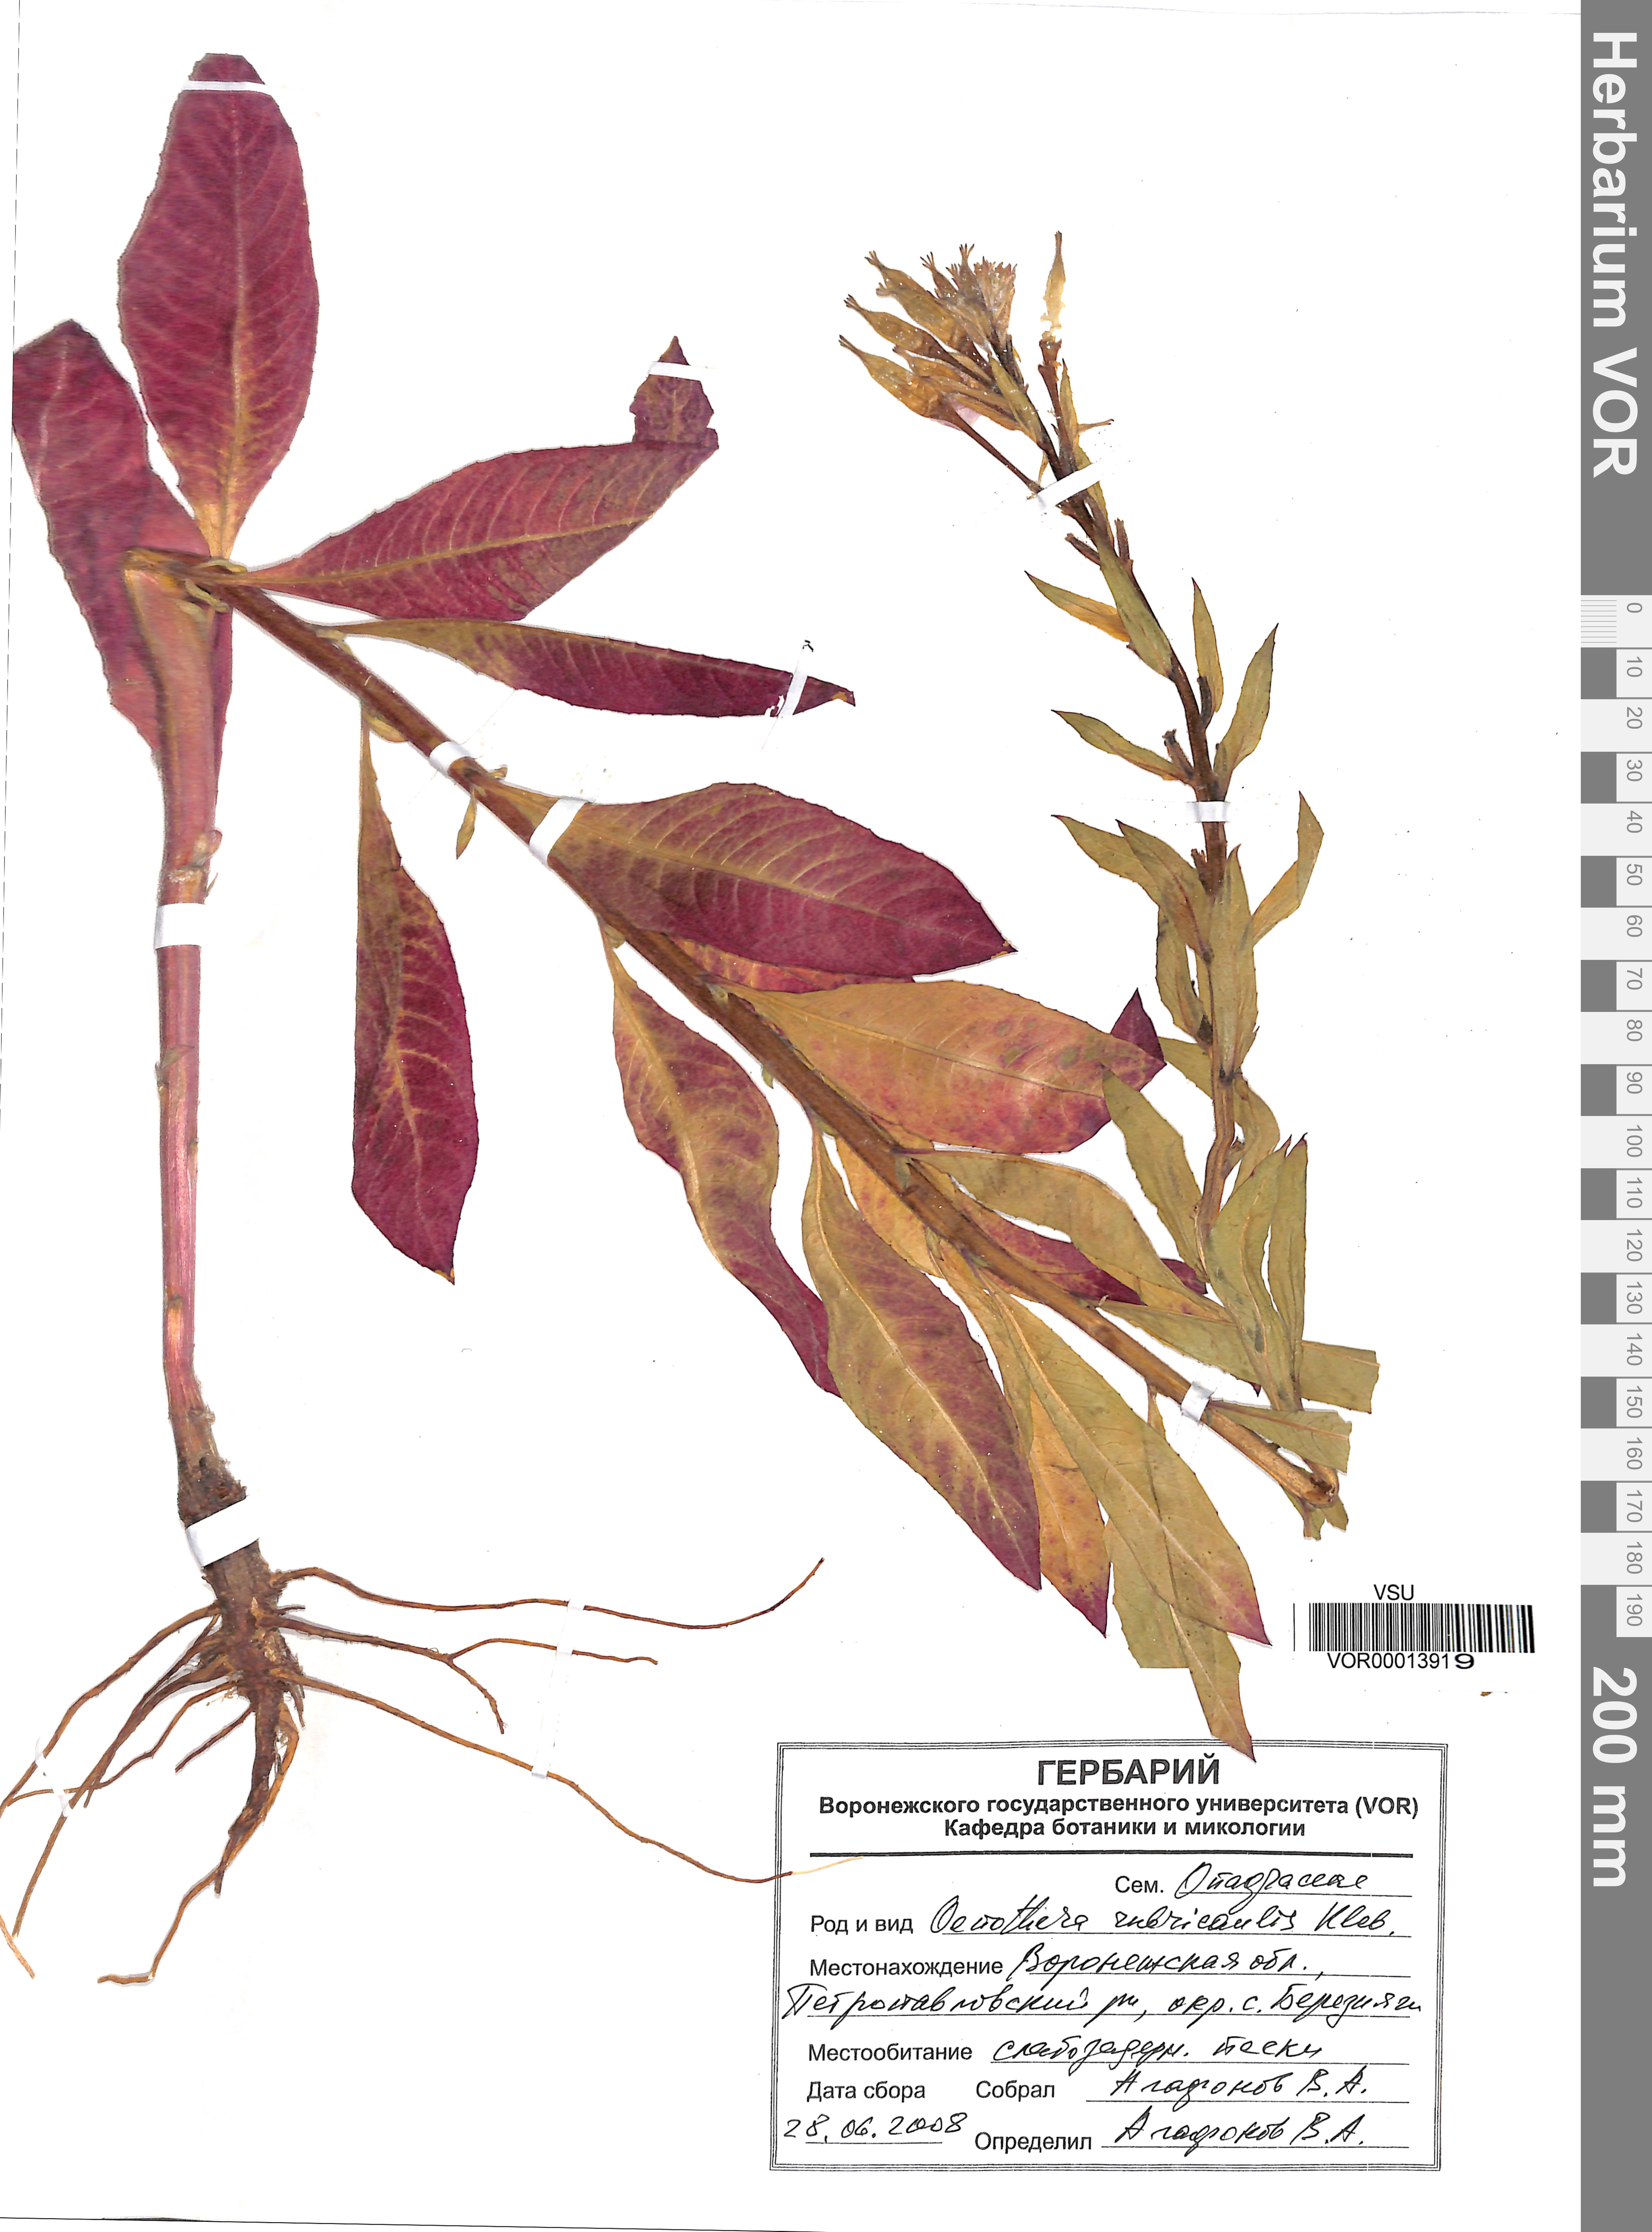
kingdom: Plantae
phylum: Tracheophyta
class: Magnoliopsida
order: Myrtales
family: Onagraceae
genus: Oenothera
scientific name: Oenothera rubricaulis
